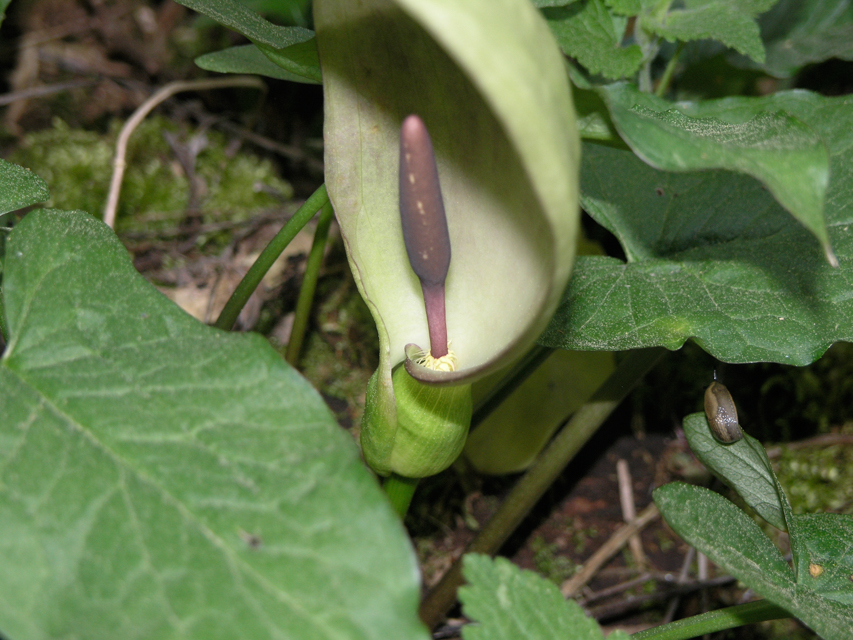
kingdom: Plantae
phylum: Tracheophyta
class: Liliopsida
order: Alismatales
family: Araceae
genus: Arum
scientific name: Arum maculatum
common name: Lords-and-ladies
